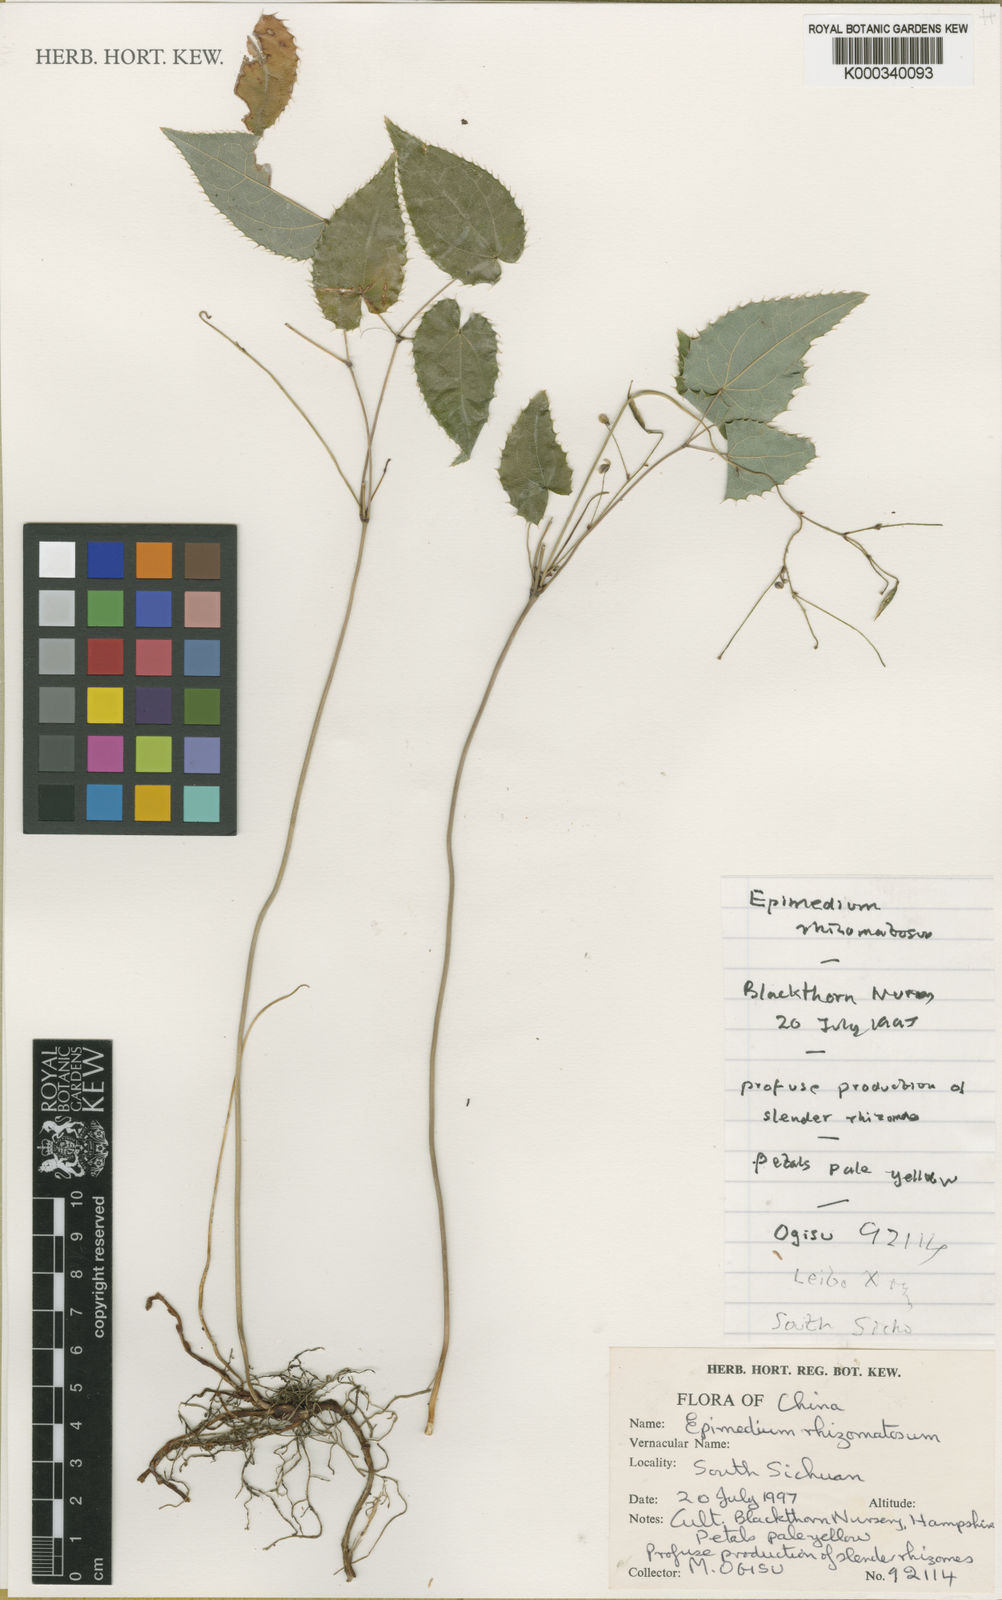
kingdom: Plantae
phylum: Tracheophyta
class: Magnoliopsida
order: Ranunculales
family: Berberidaceae
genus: Epimedium
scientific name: Epimedium davidii
